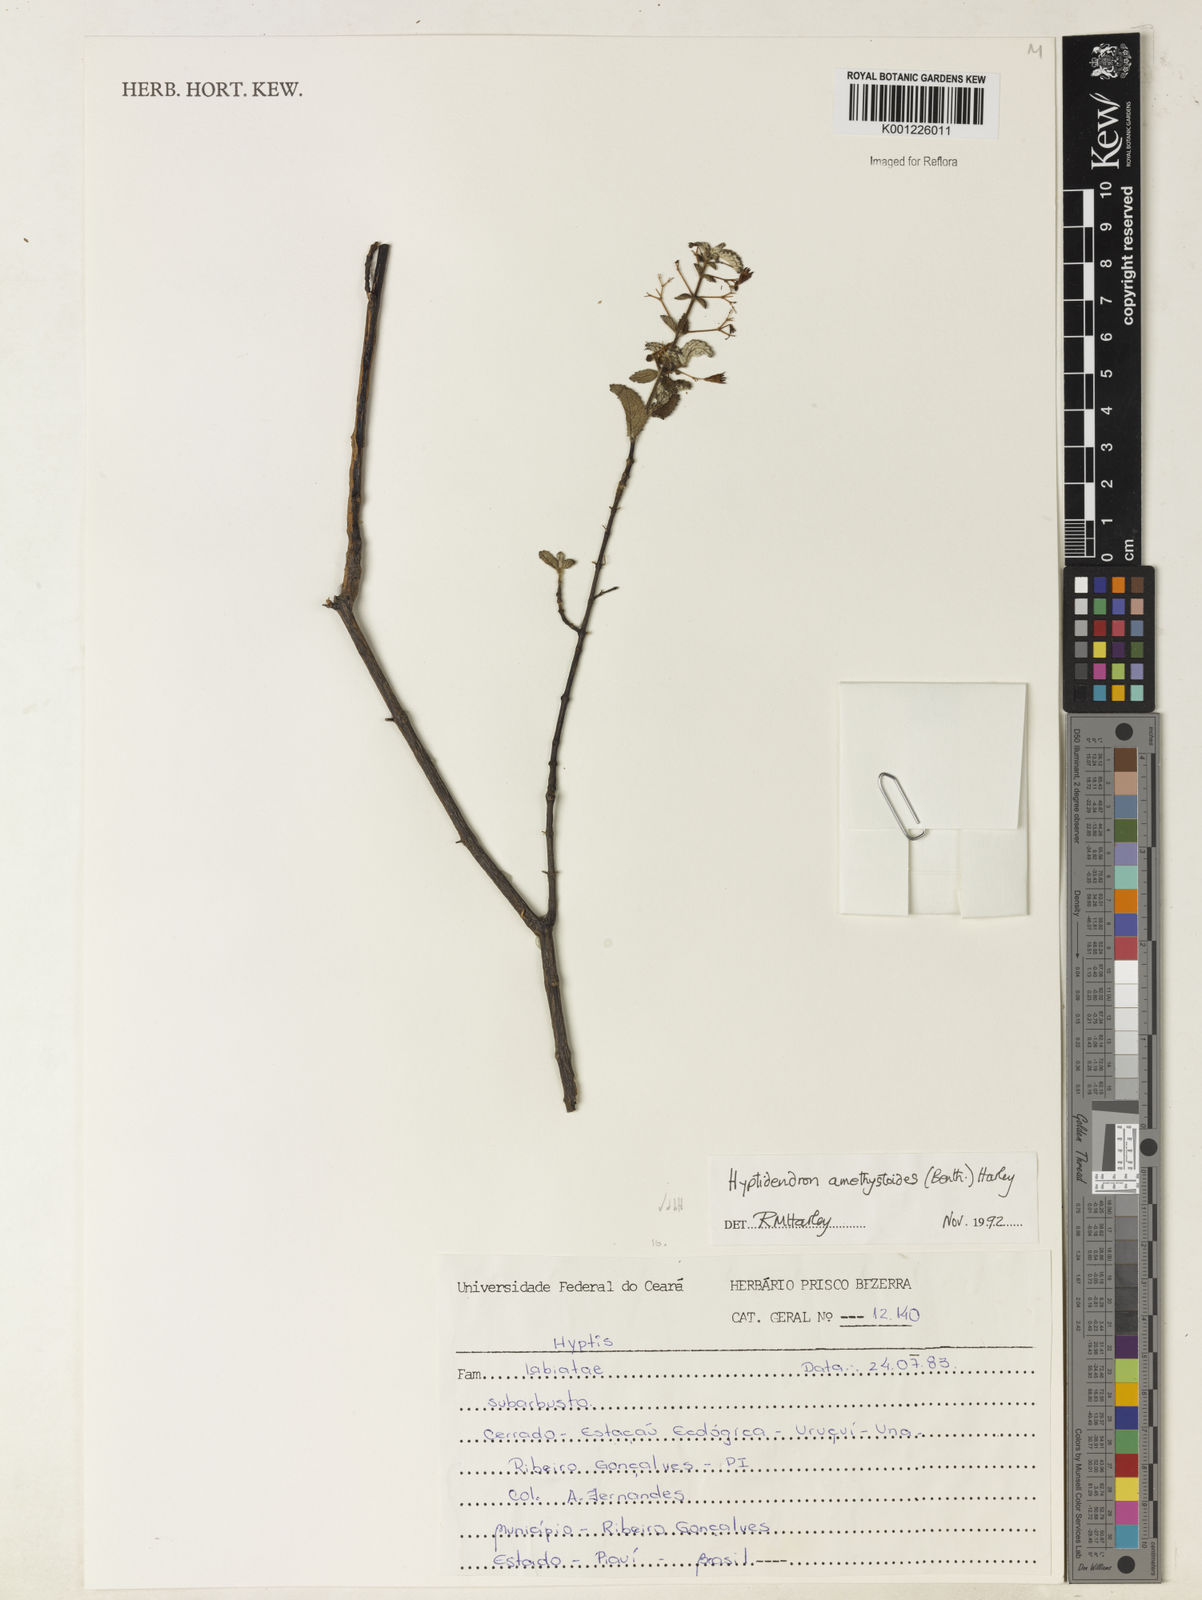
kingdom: Plantae
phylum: Tracheophyta
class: Magnoliopsida
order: Lamiales
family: Lamiaceae
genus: Hyptidendron
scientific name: Hyptidendron amethystoides
